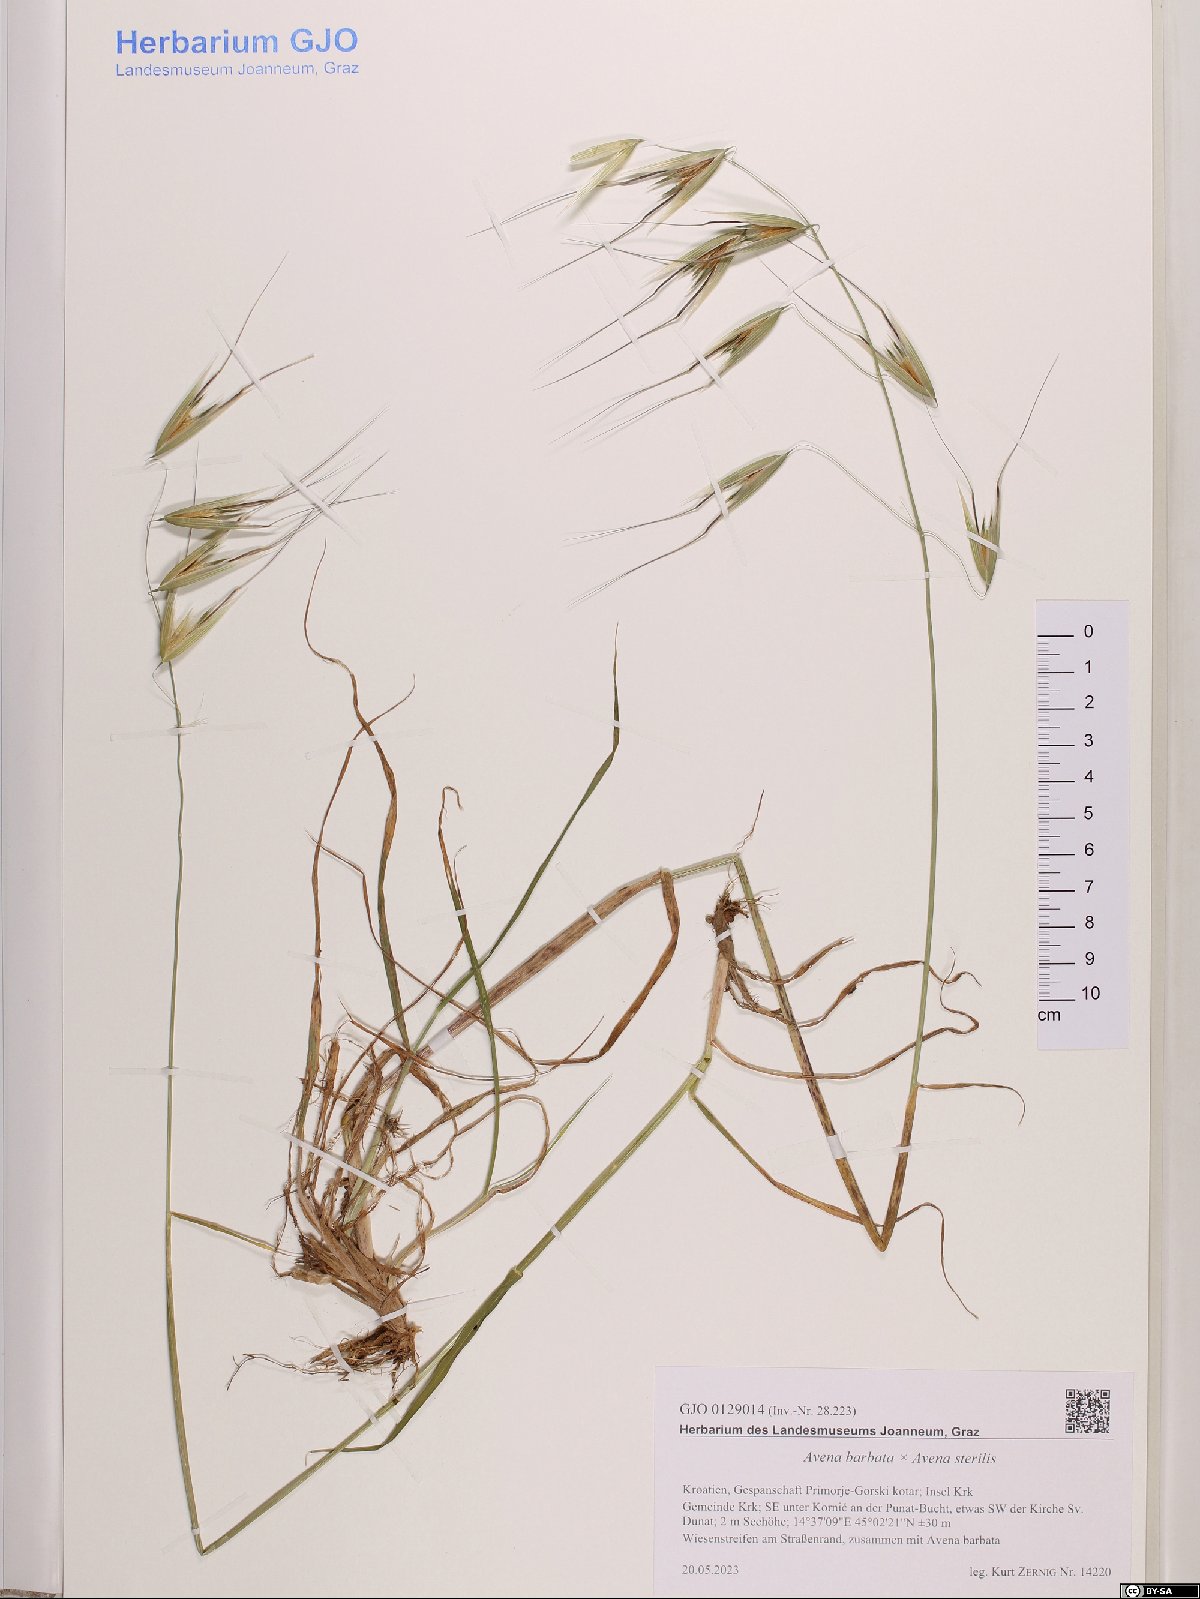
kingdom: Plantae
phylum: Tracheophyta
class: Liliopsida
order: Poales
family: Poaceae
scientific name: Poaceae
